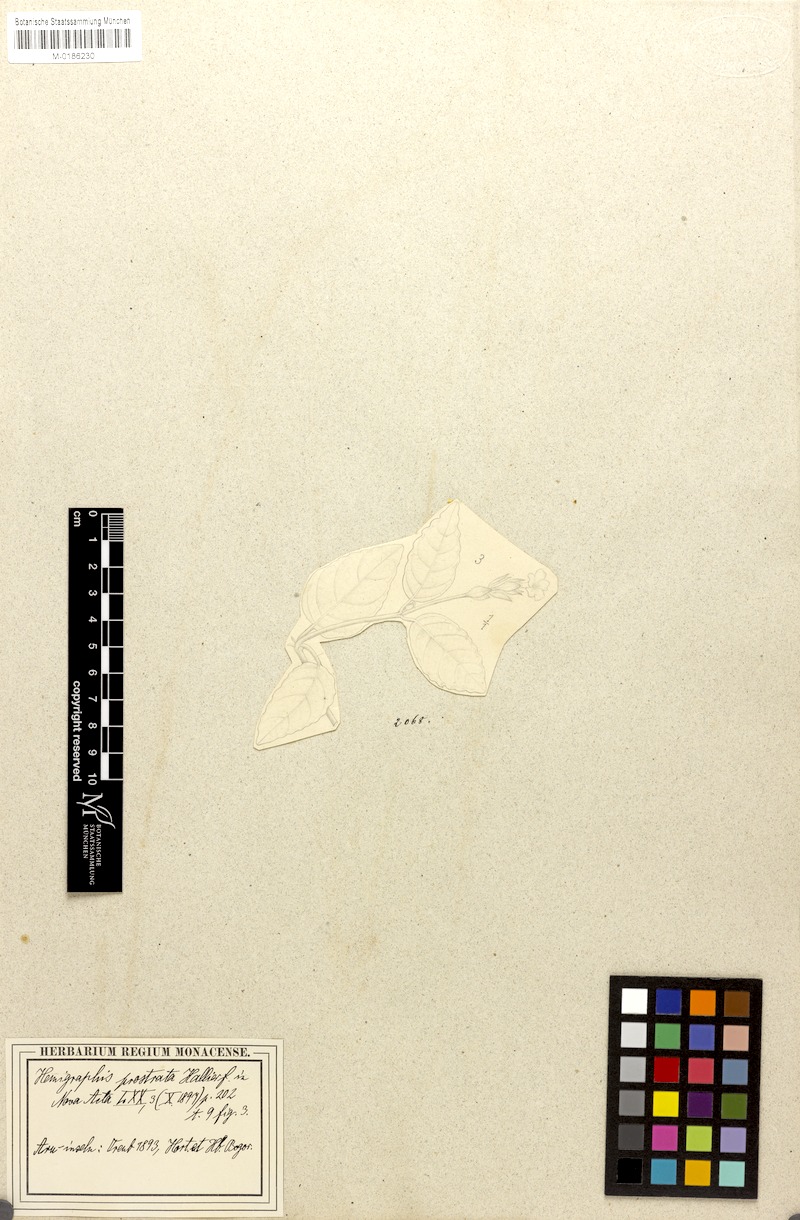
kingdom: Plantae
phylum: Tracheophyta
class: Magnoliopsida
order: Lamiales
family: Acanthaceae
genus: Hemigraphis
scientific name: Hemigraphis prostrata
